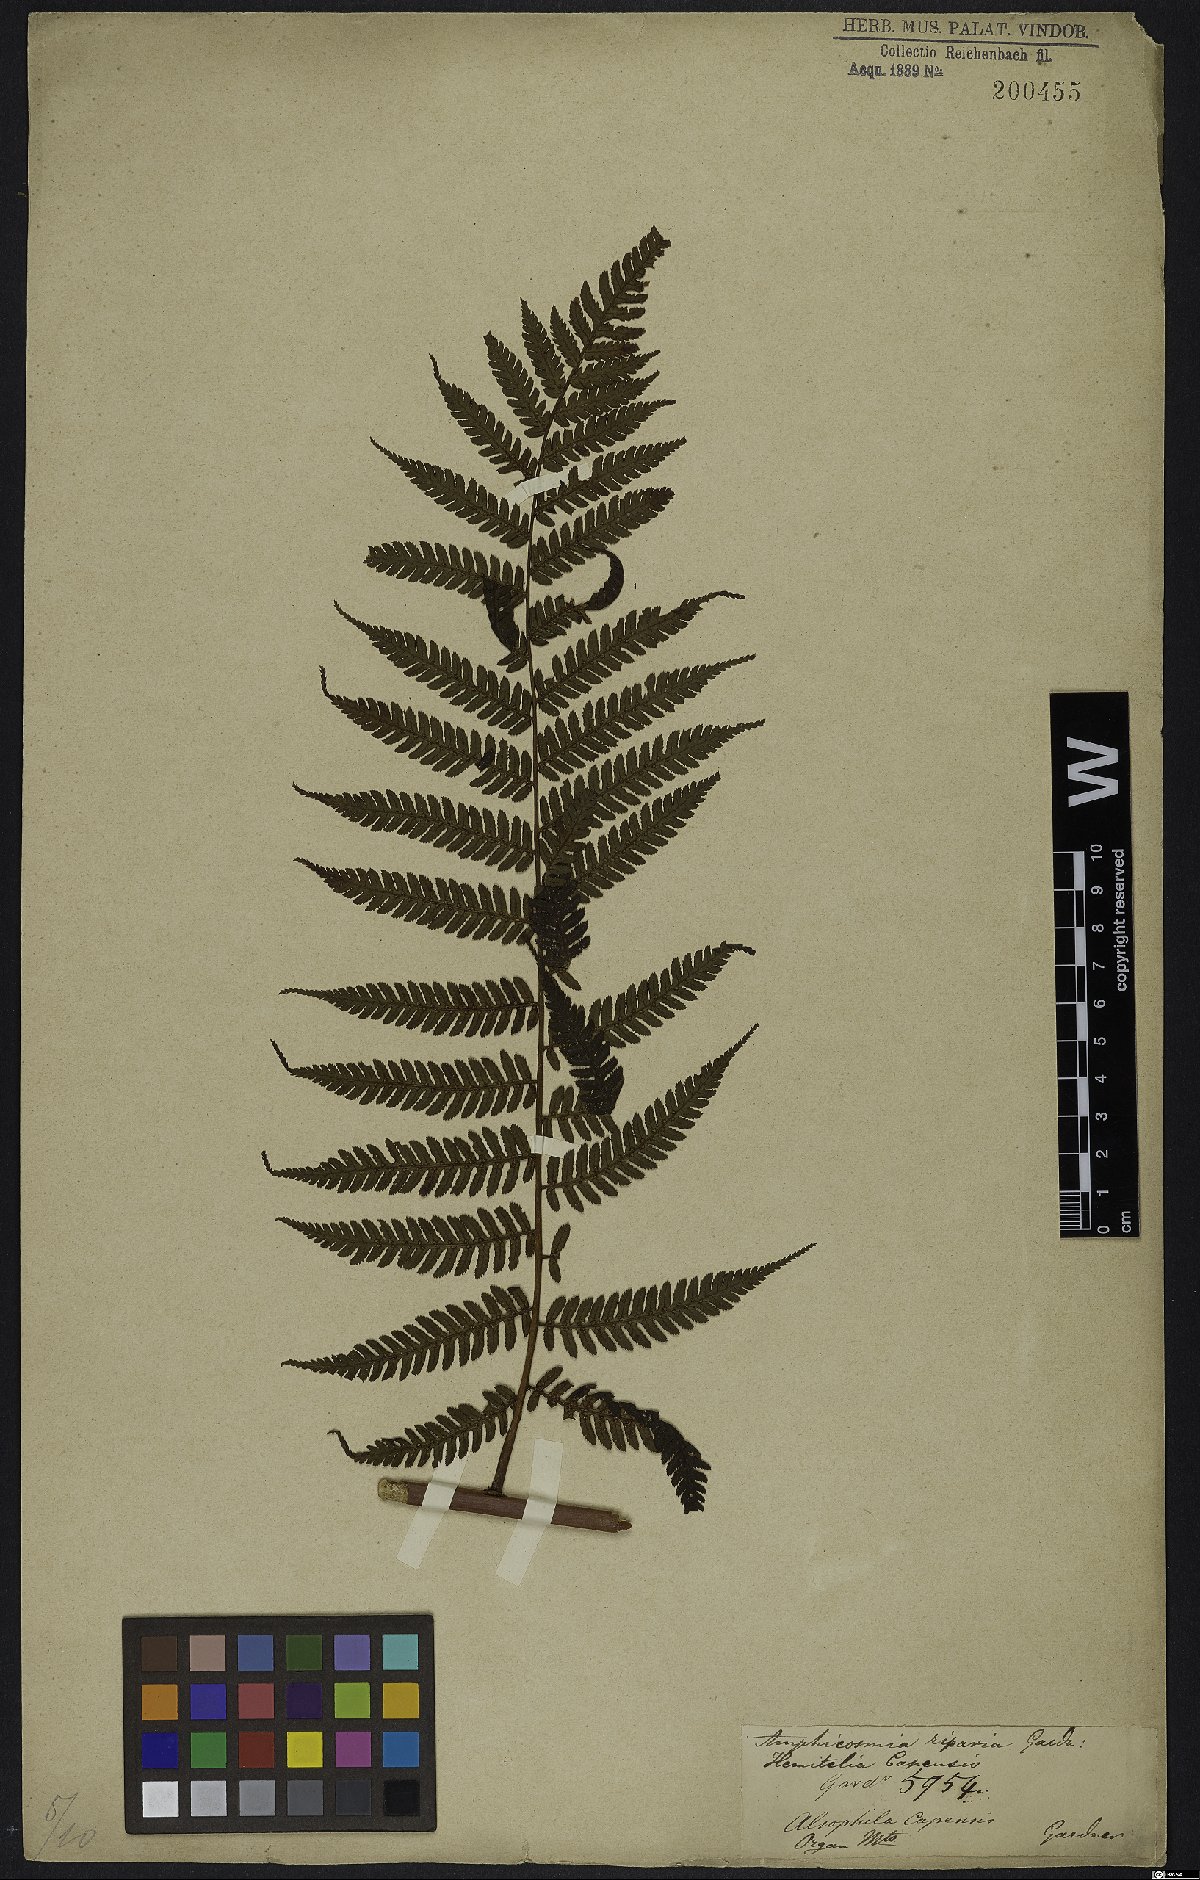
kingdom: Plantae
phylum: Tracheophyta
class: Polypodiopsida
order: Cyatheales
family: Cyatheaceae
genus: Gymnosphaera
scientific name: Gymnosphaera capensis
